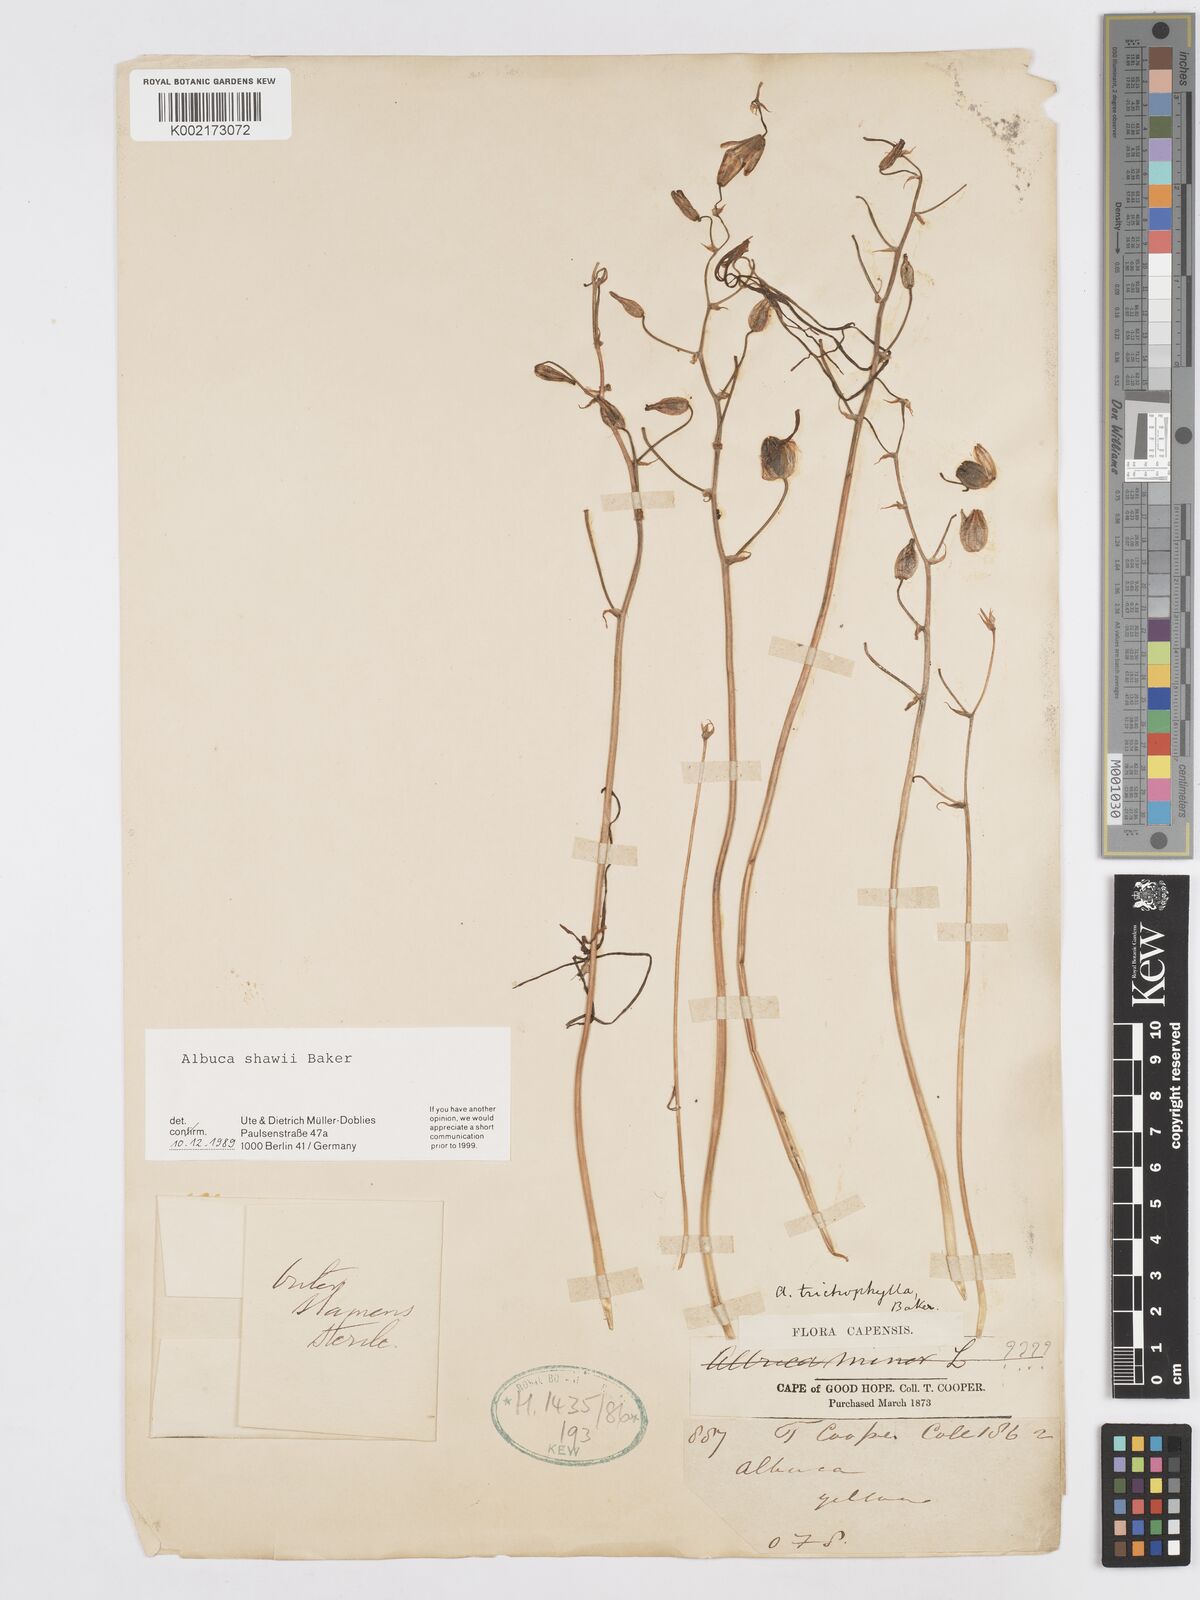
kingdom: Plantae
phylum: Tracheophyta
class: Liliopsida
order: Asparagales
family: Asparagaceae
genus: Albuca
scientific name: Albuca shawii
